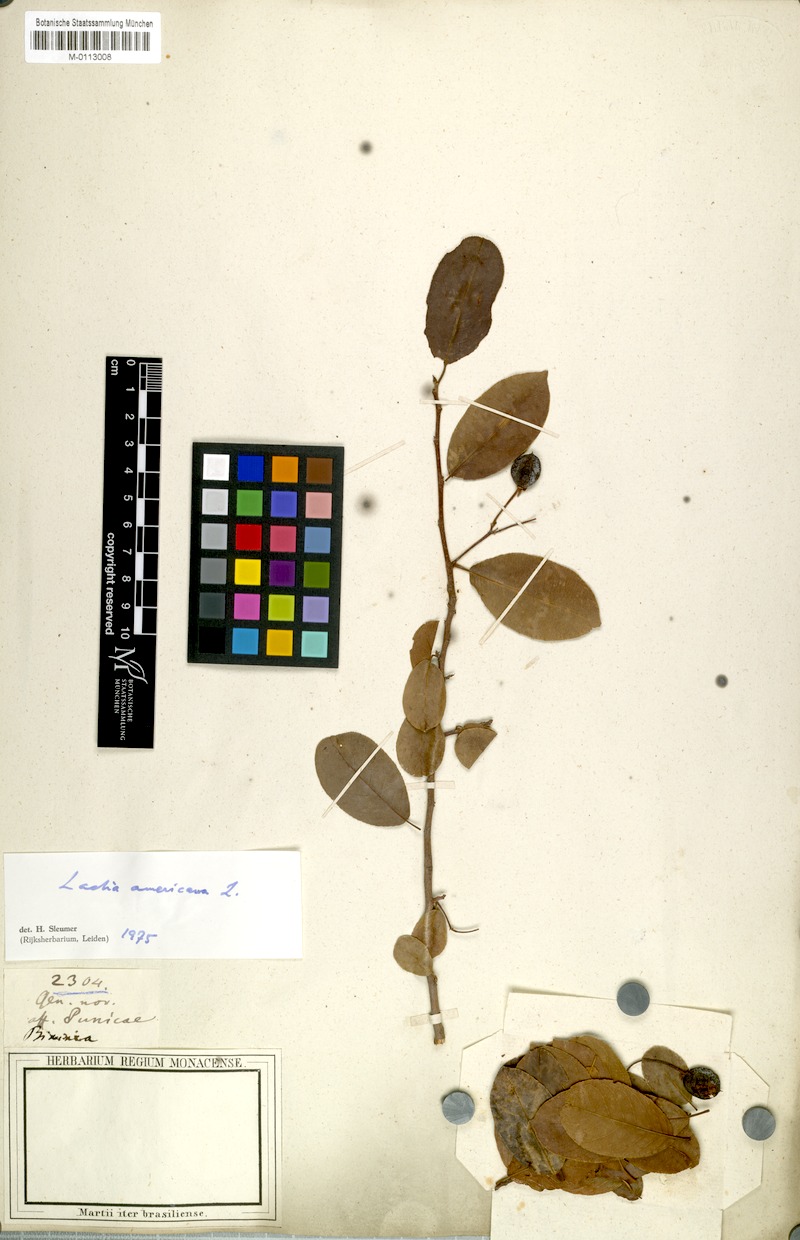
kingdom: Plantae
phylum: Tracheophyta
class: Magnoliopsida
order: Malpighiales
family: Salicaceae
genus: Casearia
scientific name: Casearia americana
